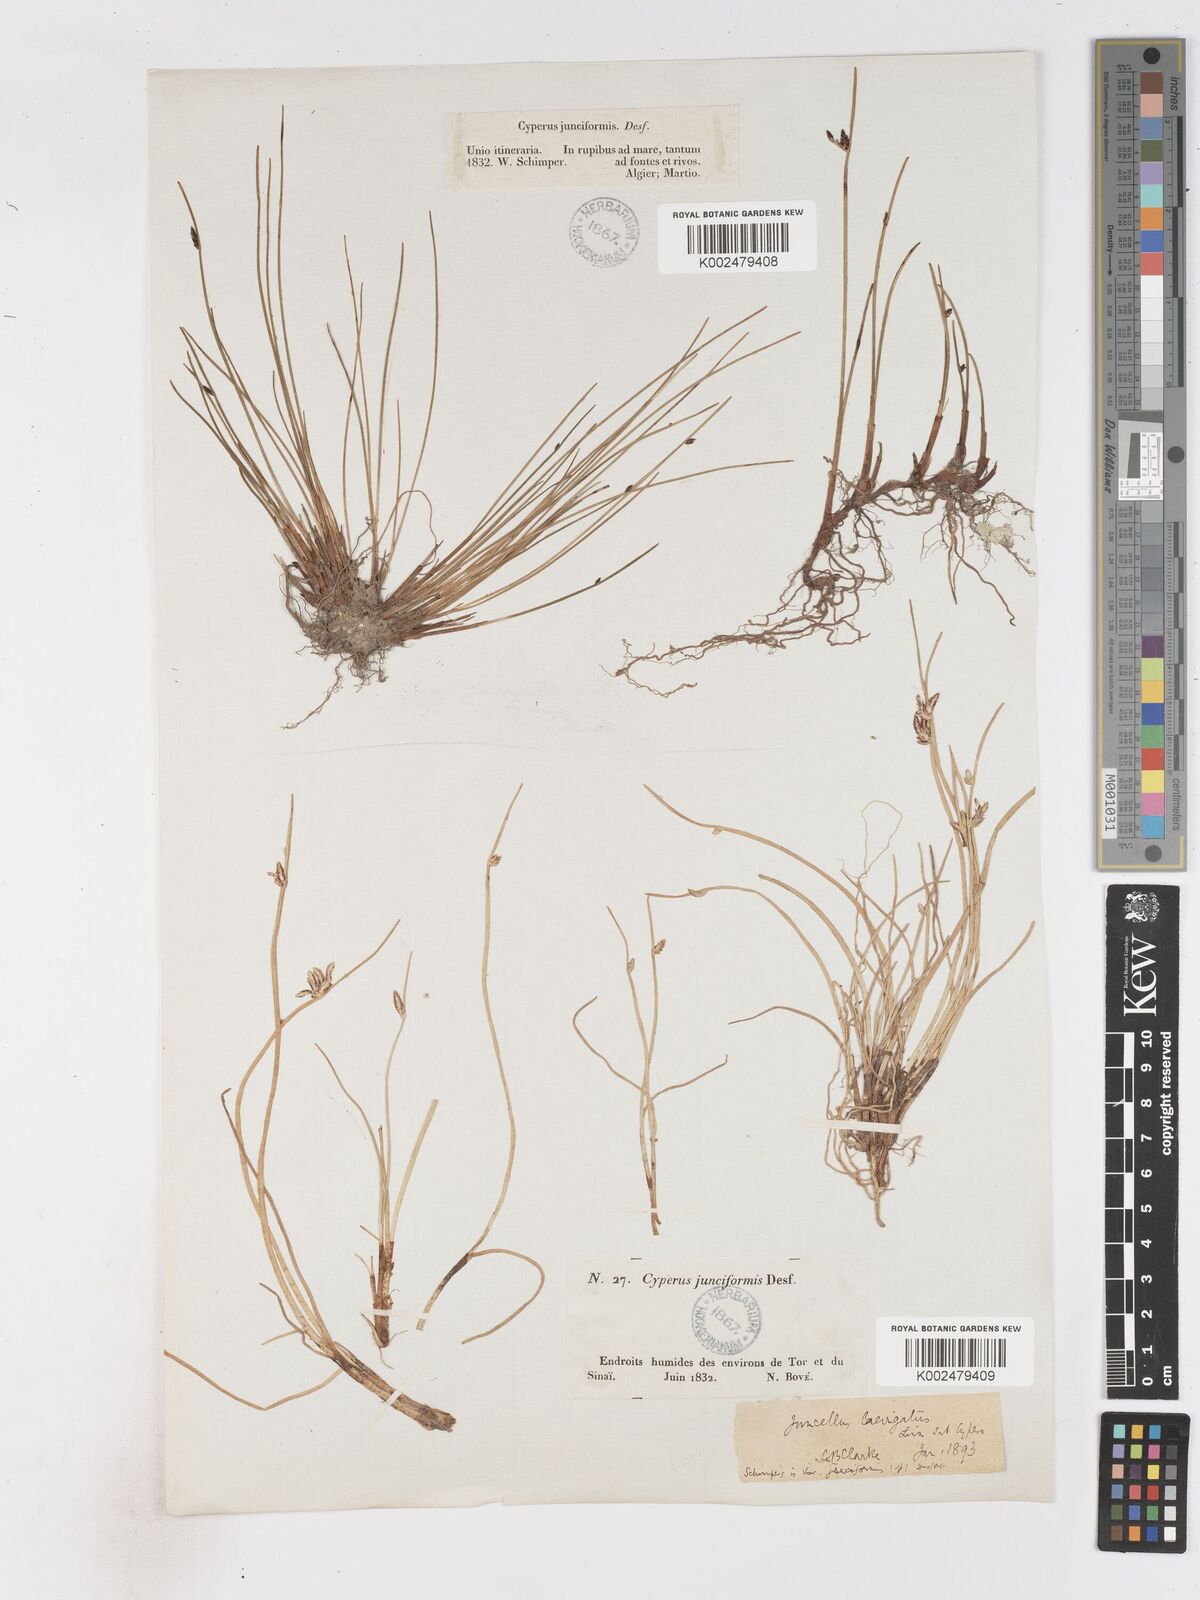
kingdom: Plantae
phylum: Tracheophyta
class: Liliopsida
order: Poales
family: Cyperaceae
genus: Cyperus
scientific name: Cyperus laevigatus
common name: Smooth flat sedge
